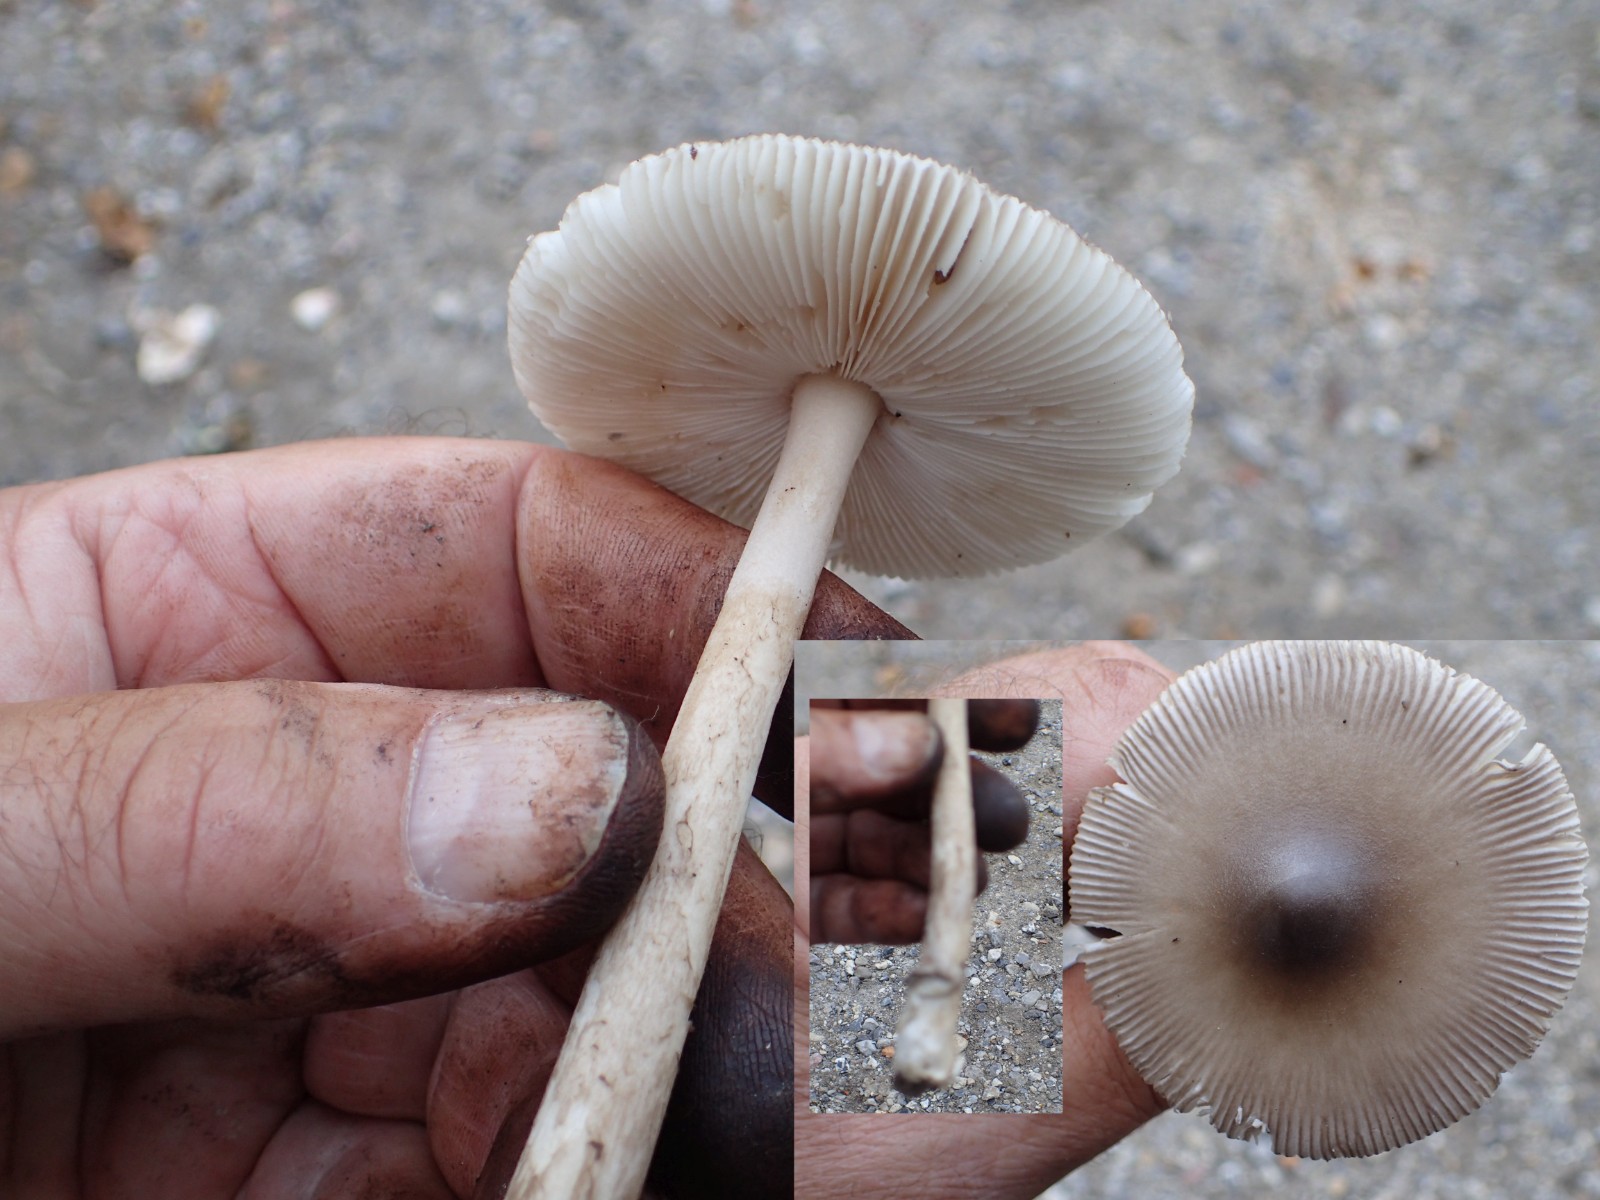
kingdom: Fungi
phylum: Basidiomycota
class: Agaricomycetes
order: Agaricales
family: Amanitaceae
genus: Amanita
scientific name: Amanita submembranacea
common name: gråspættet kam-fluesvamp
